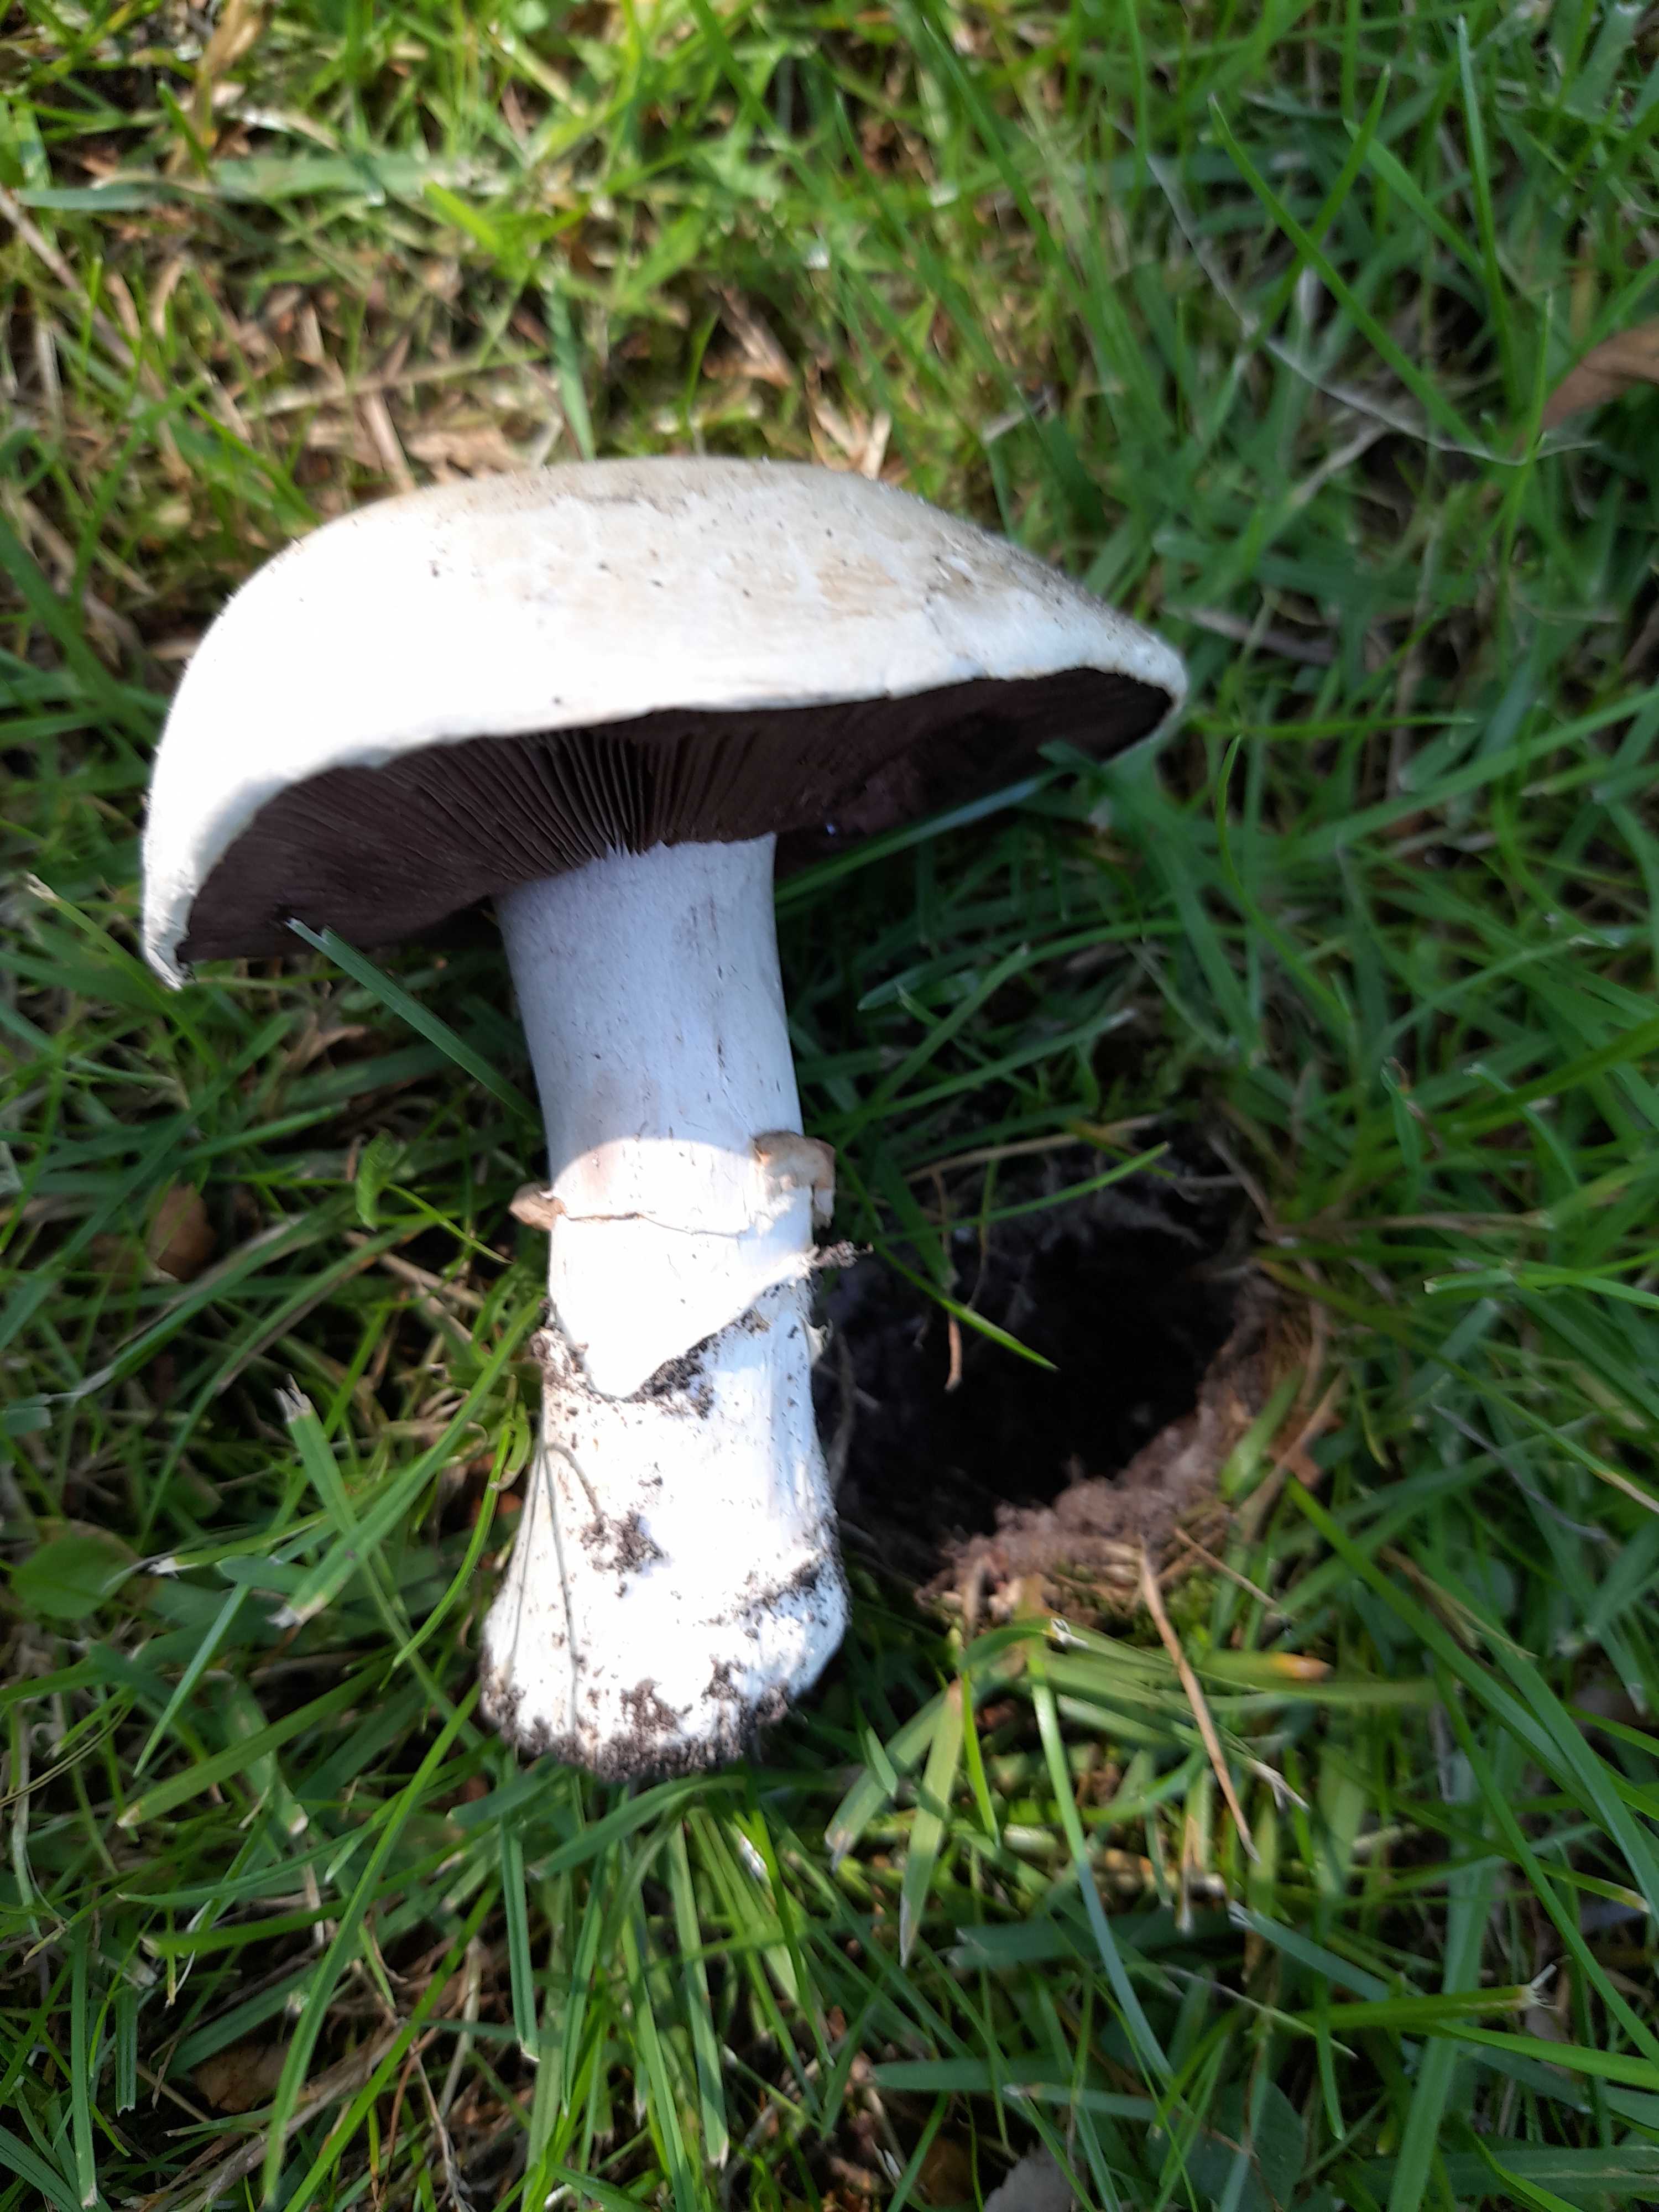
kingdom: Fungi
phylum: Basidiomycota
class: Agaricomycetes
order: Agaricales
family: Agaricaceae
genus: Agaricus
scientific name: Agaricus bitorquis
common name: vej-champignon
